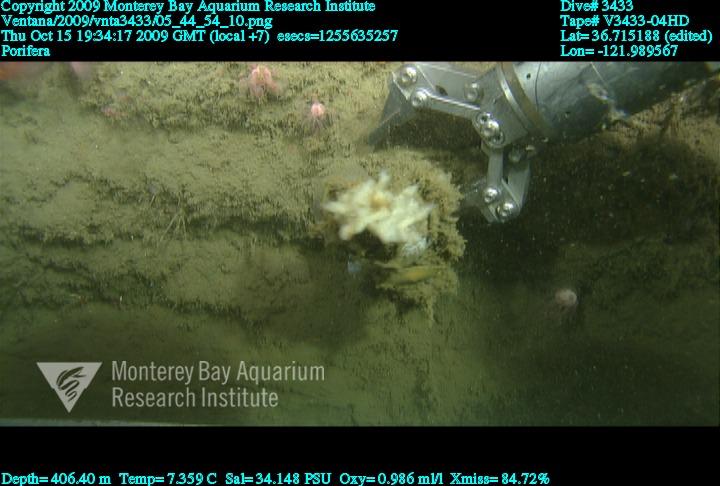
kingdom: Animalia
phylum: Porifera
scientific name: Porifera
